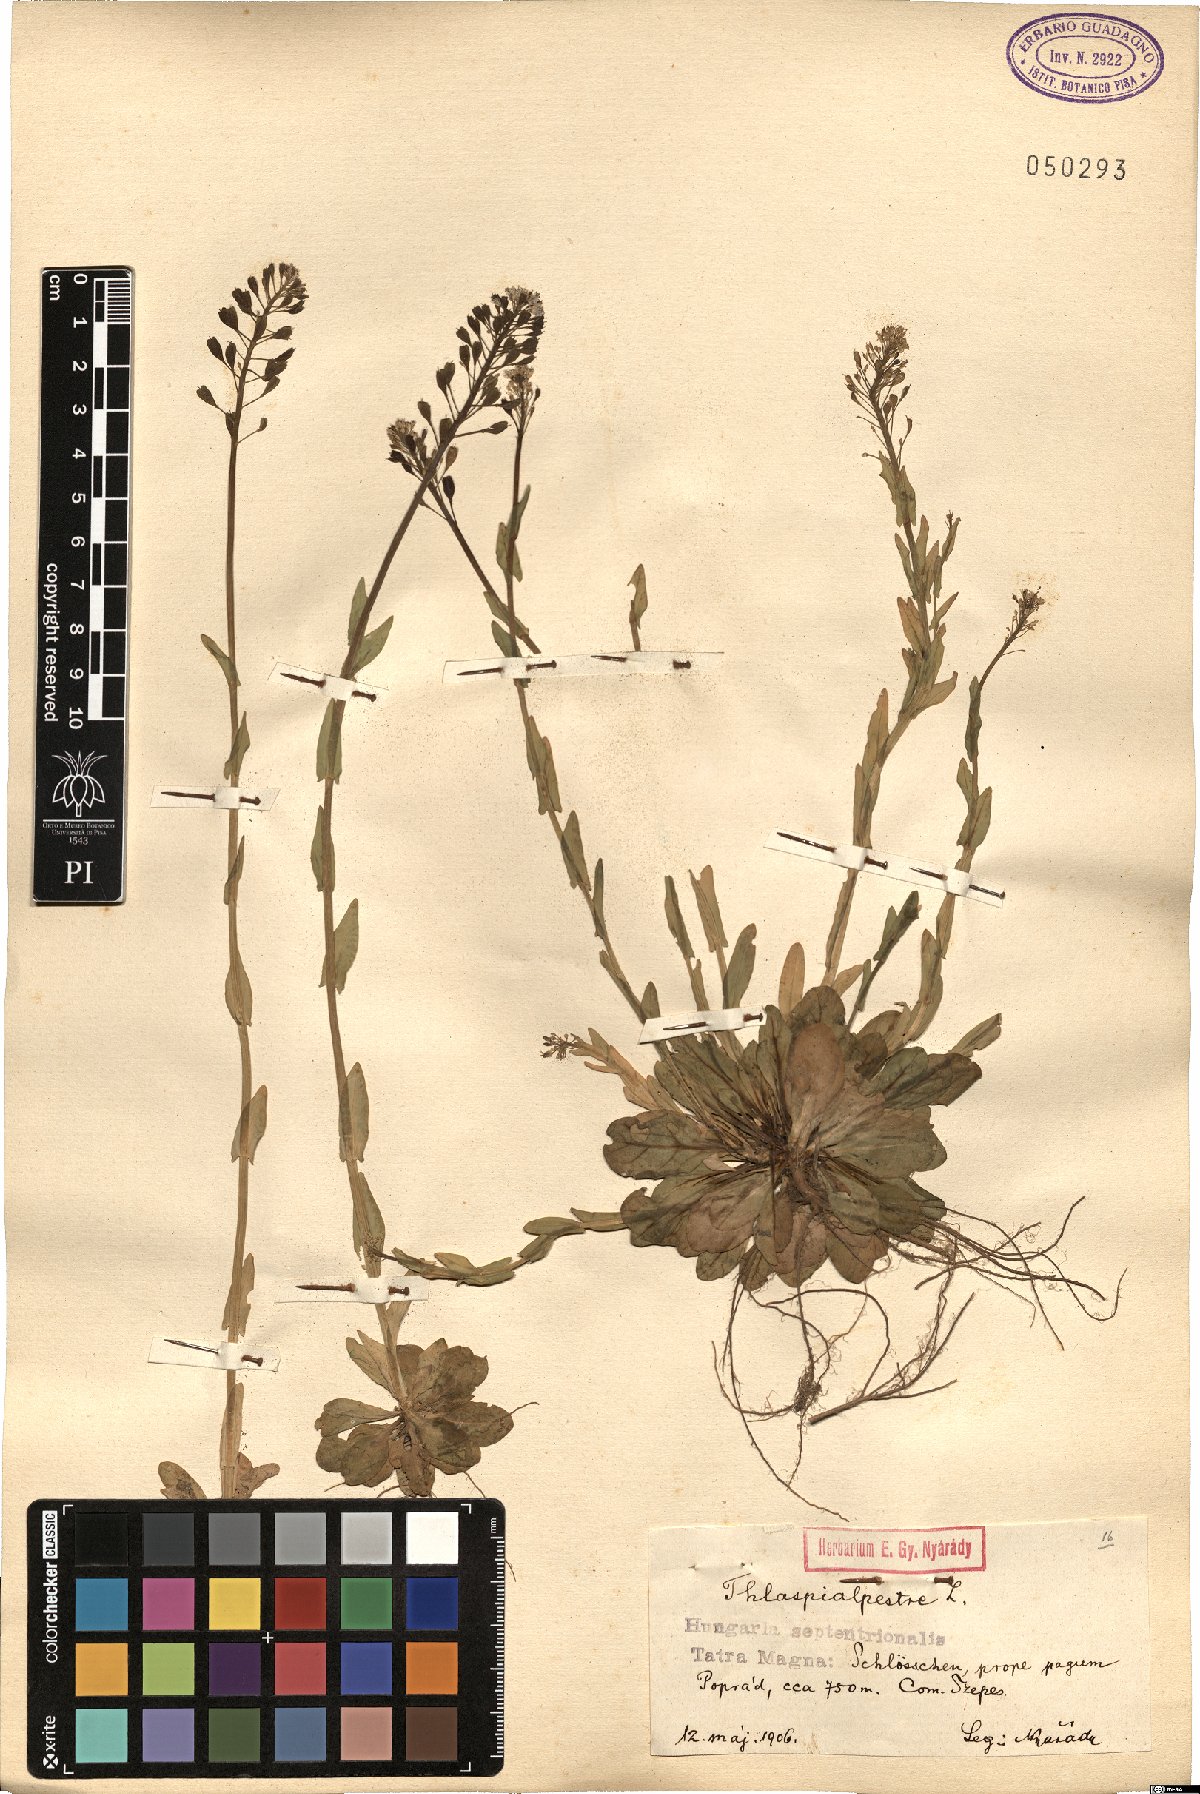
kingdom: Plantae
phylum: Tracheophyta
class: Magnoliopsida
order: Brassicales
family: Brassicaceae
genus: Noccaea
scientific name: Noccaea brachypetala
